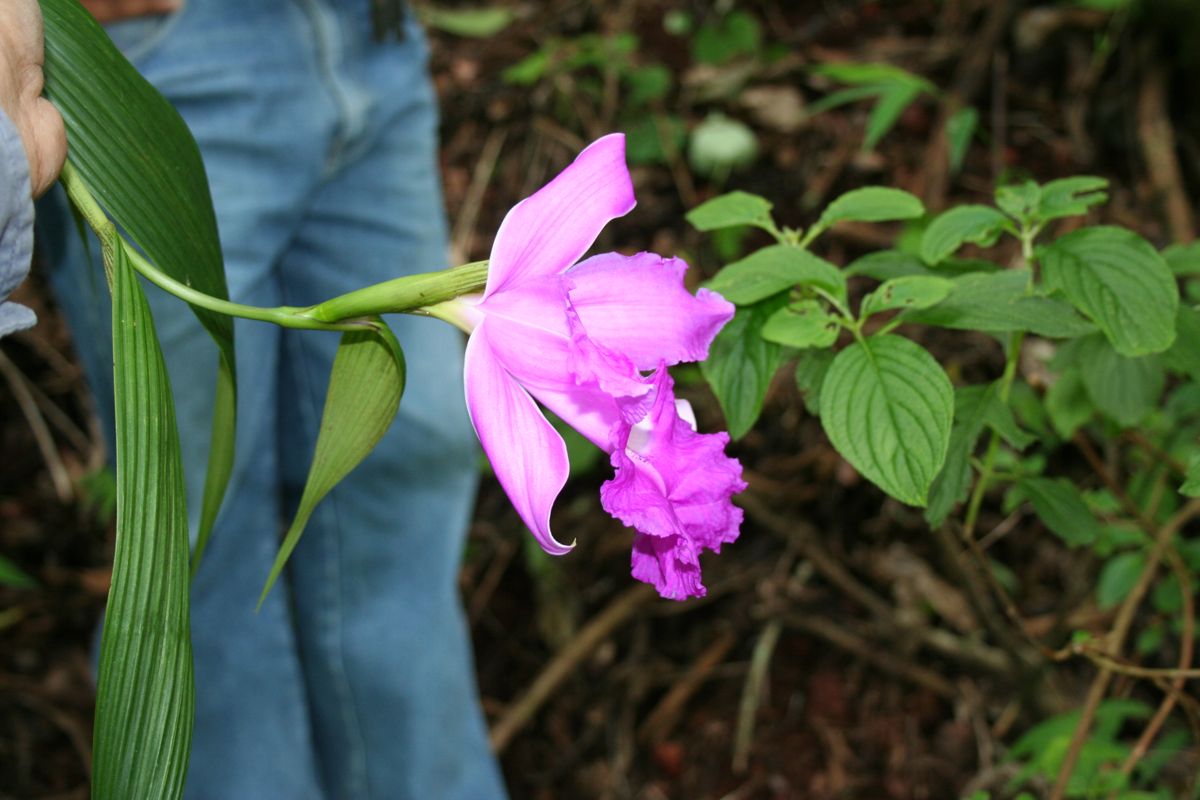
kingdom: Plantae
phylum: Tracheophyta
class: Liliopsida
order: Asparagales
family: Orchidaceae
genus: Sobralia
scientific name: Sobralia macrantha
